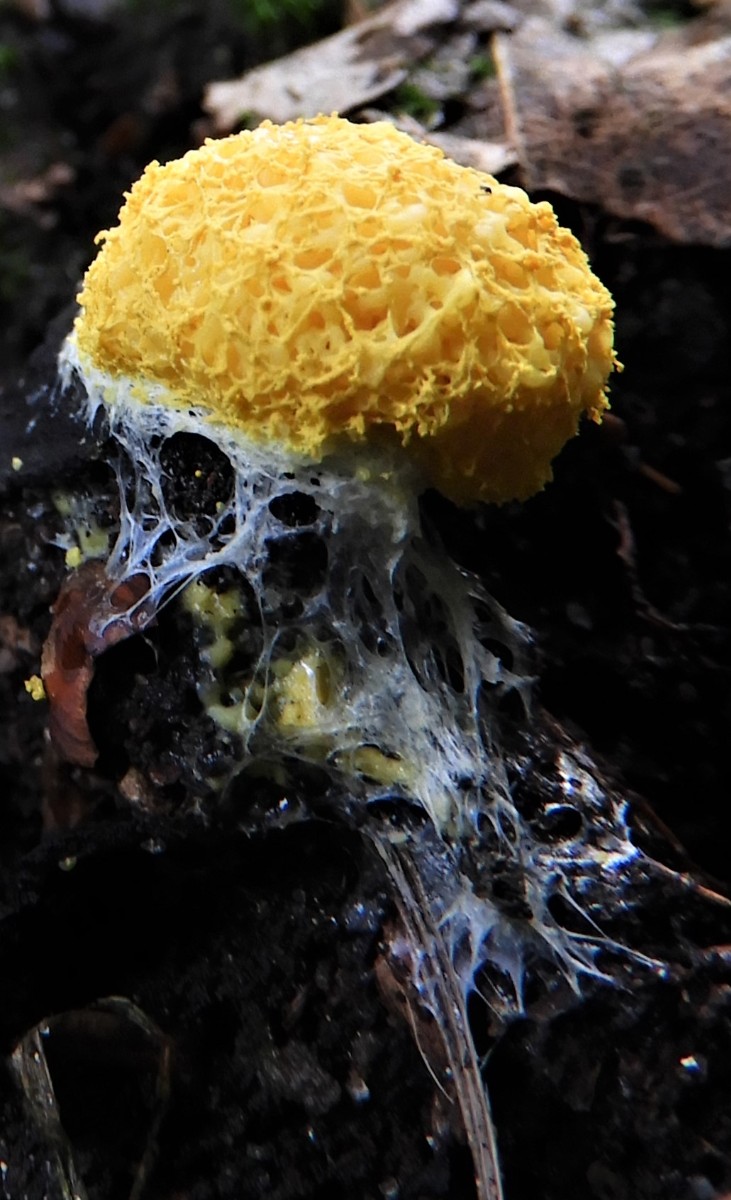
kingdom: Protozoa
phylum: Mycetozoa
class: Myxomycetes
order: Physarales
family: Physaraceae
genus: Fuligo
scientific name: Fuligo septica
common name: gul troldsmør
